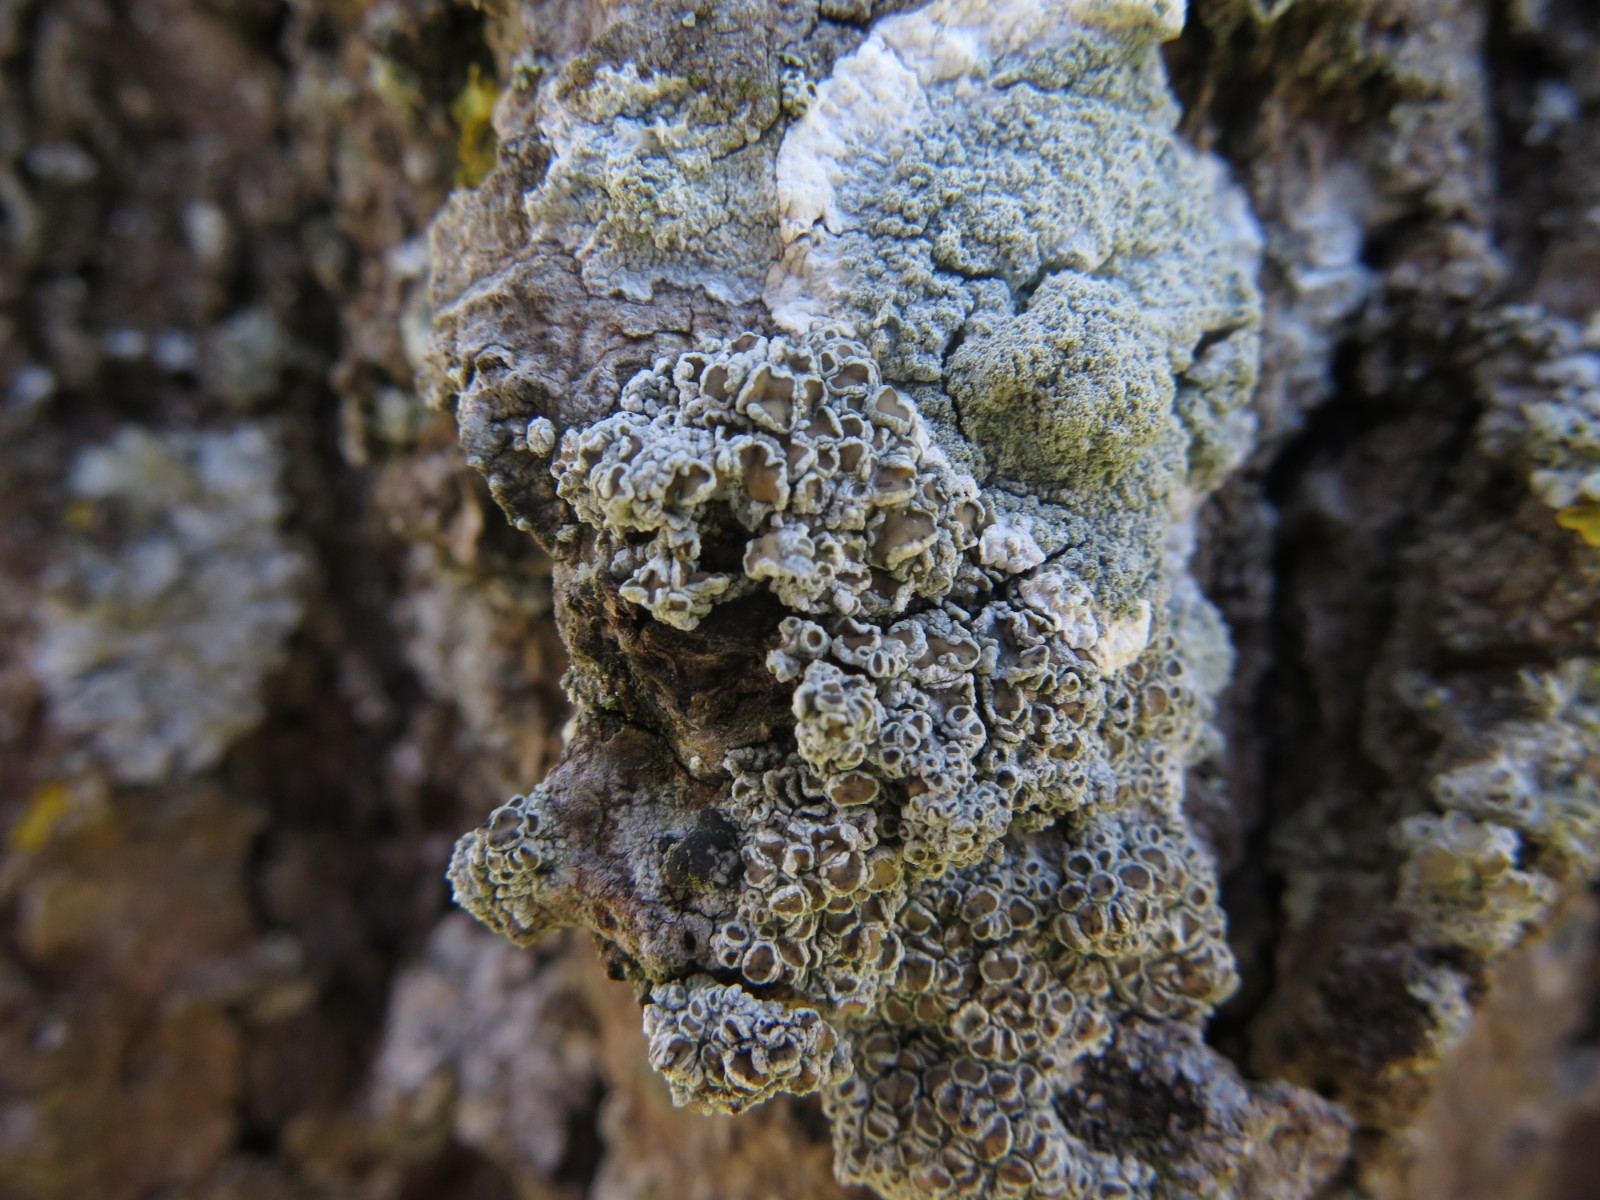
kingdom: Fungi
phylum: Ascomycota
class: Lecanoromycetes
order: Lecanorales
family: Lecanoraceae
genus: Lecanora
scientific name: Lecanora
